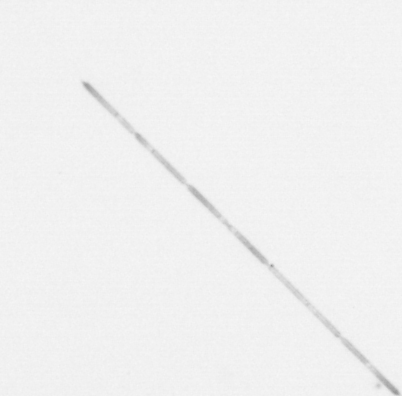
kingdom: Chromista
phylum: Ochrophyta
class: Bacillariophyceae
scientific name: Bacillariophyceae
